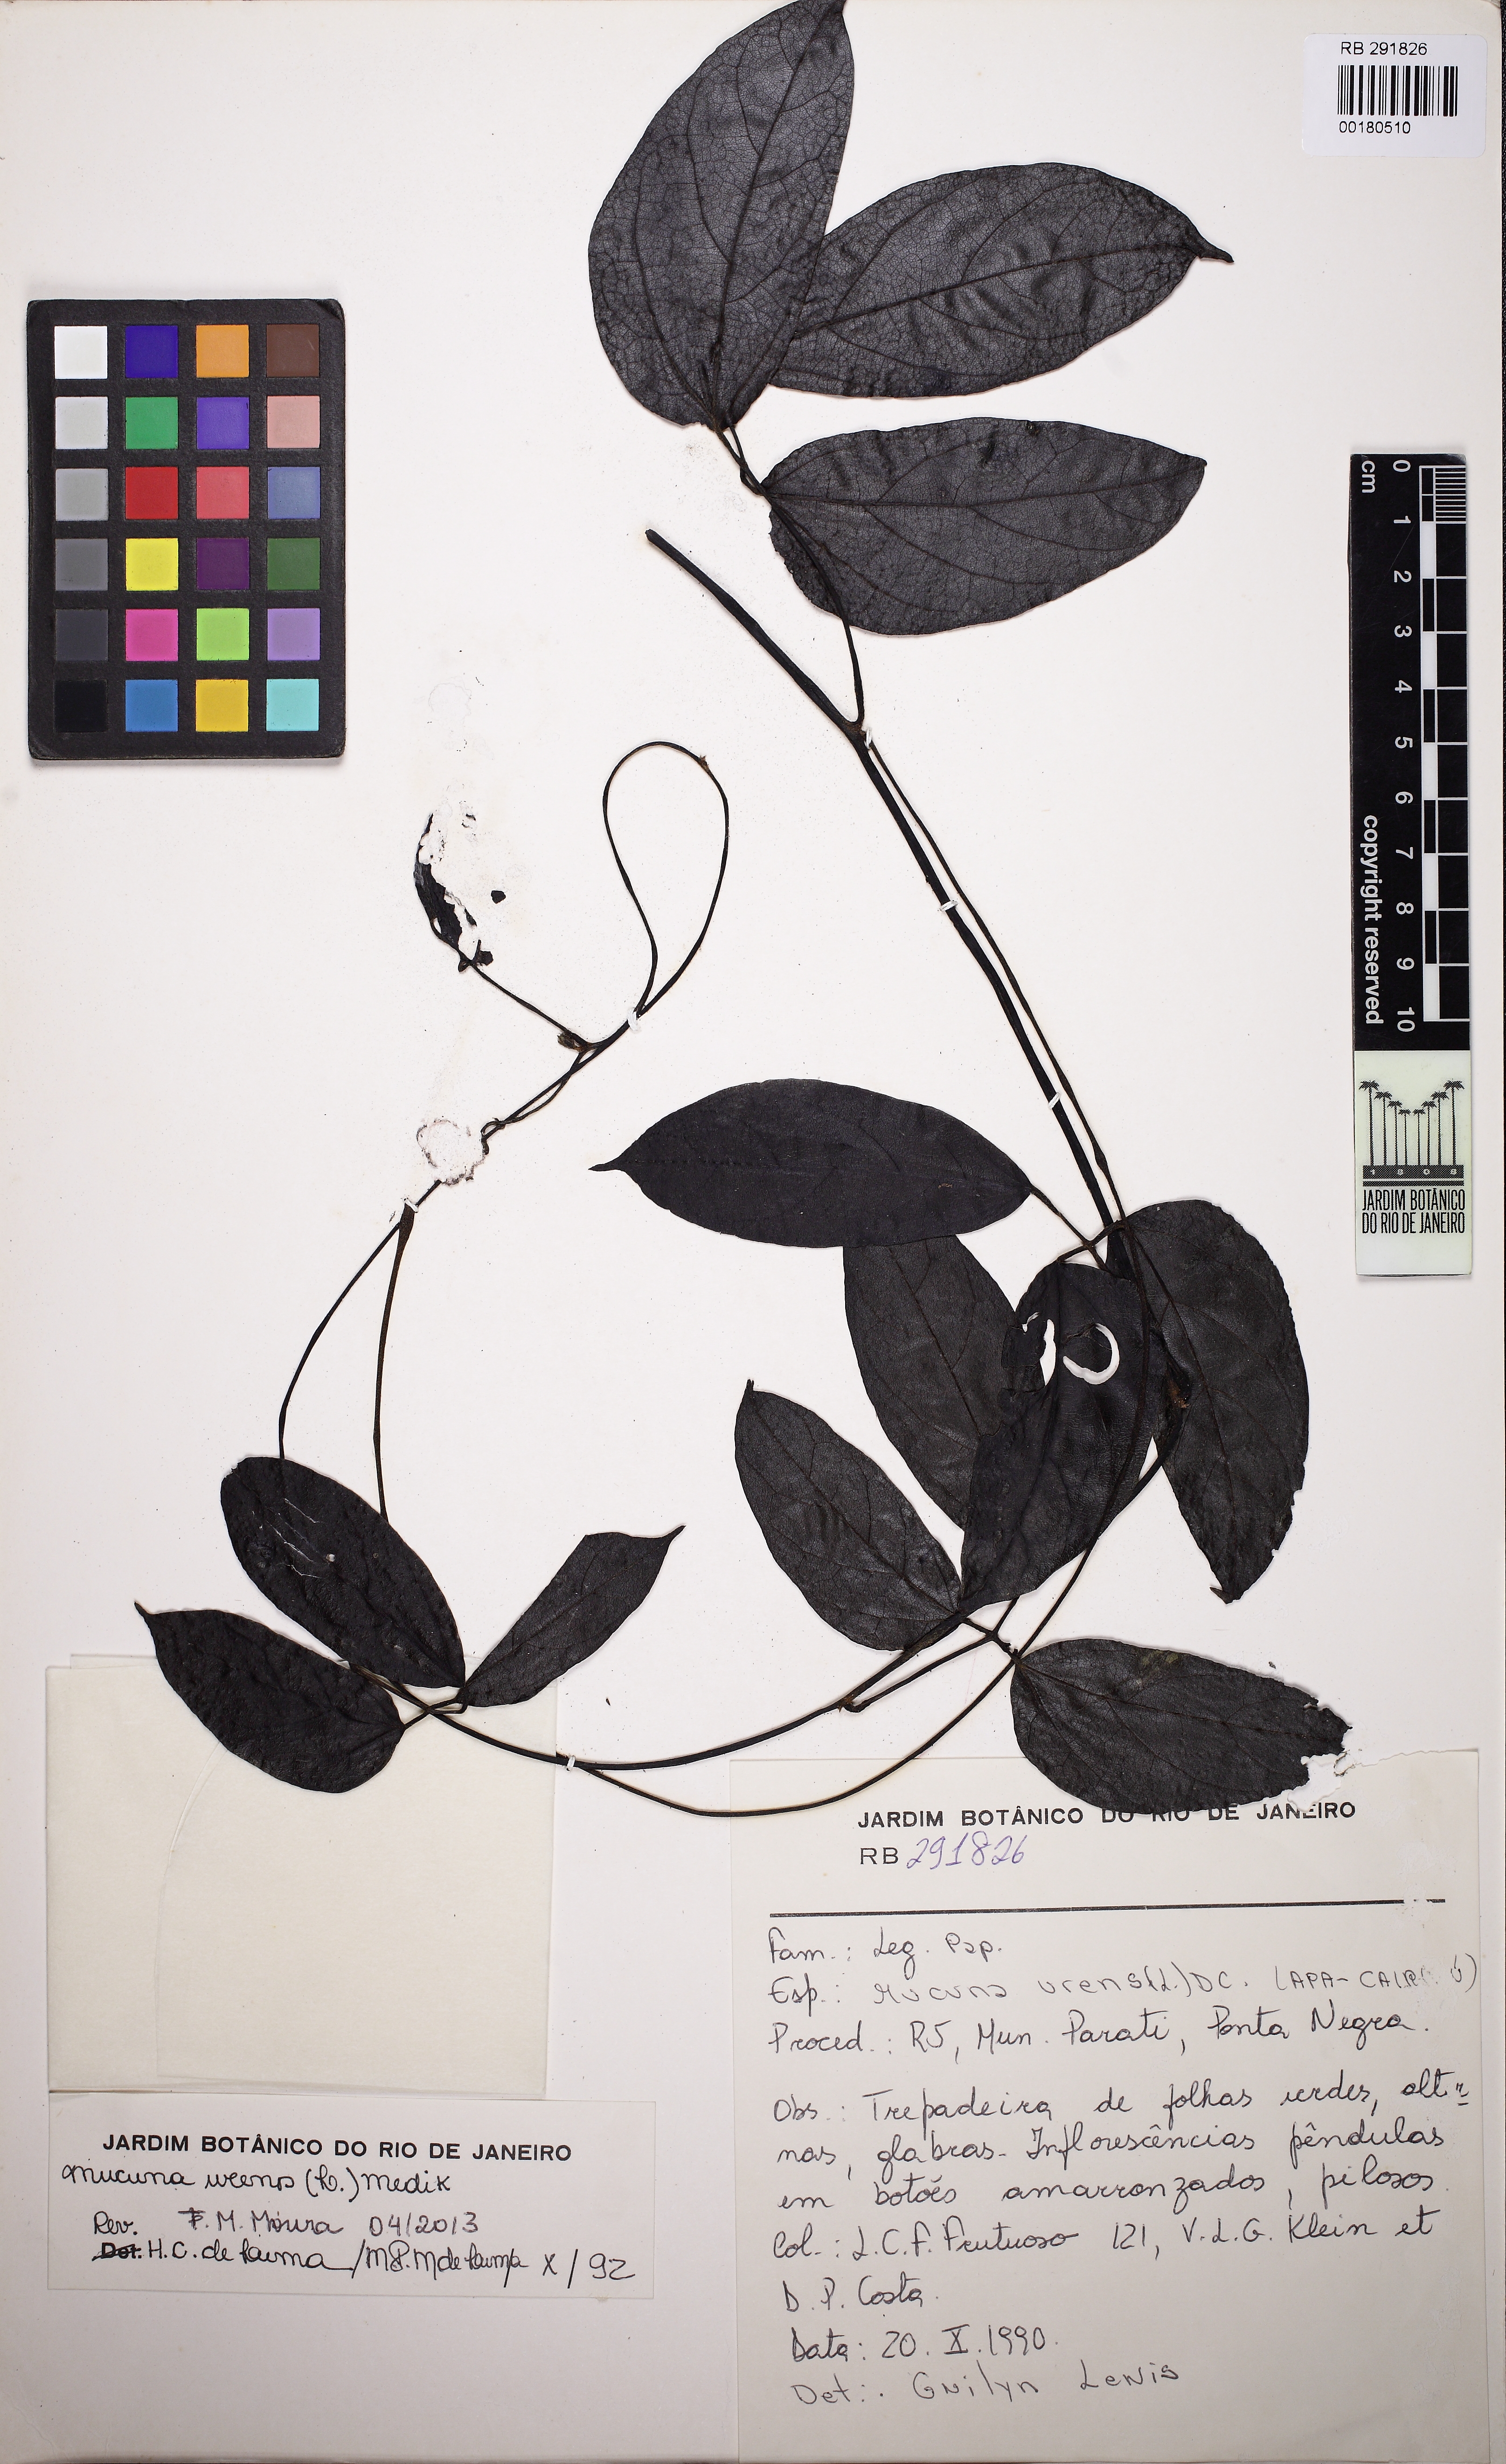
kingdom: Plantae
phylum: Tracheophyta
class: Magnoliopsida
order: Fabales
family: Fabaceae
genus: Mucuna
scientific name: Mucuna urens
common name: Red hamburger bean
